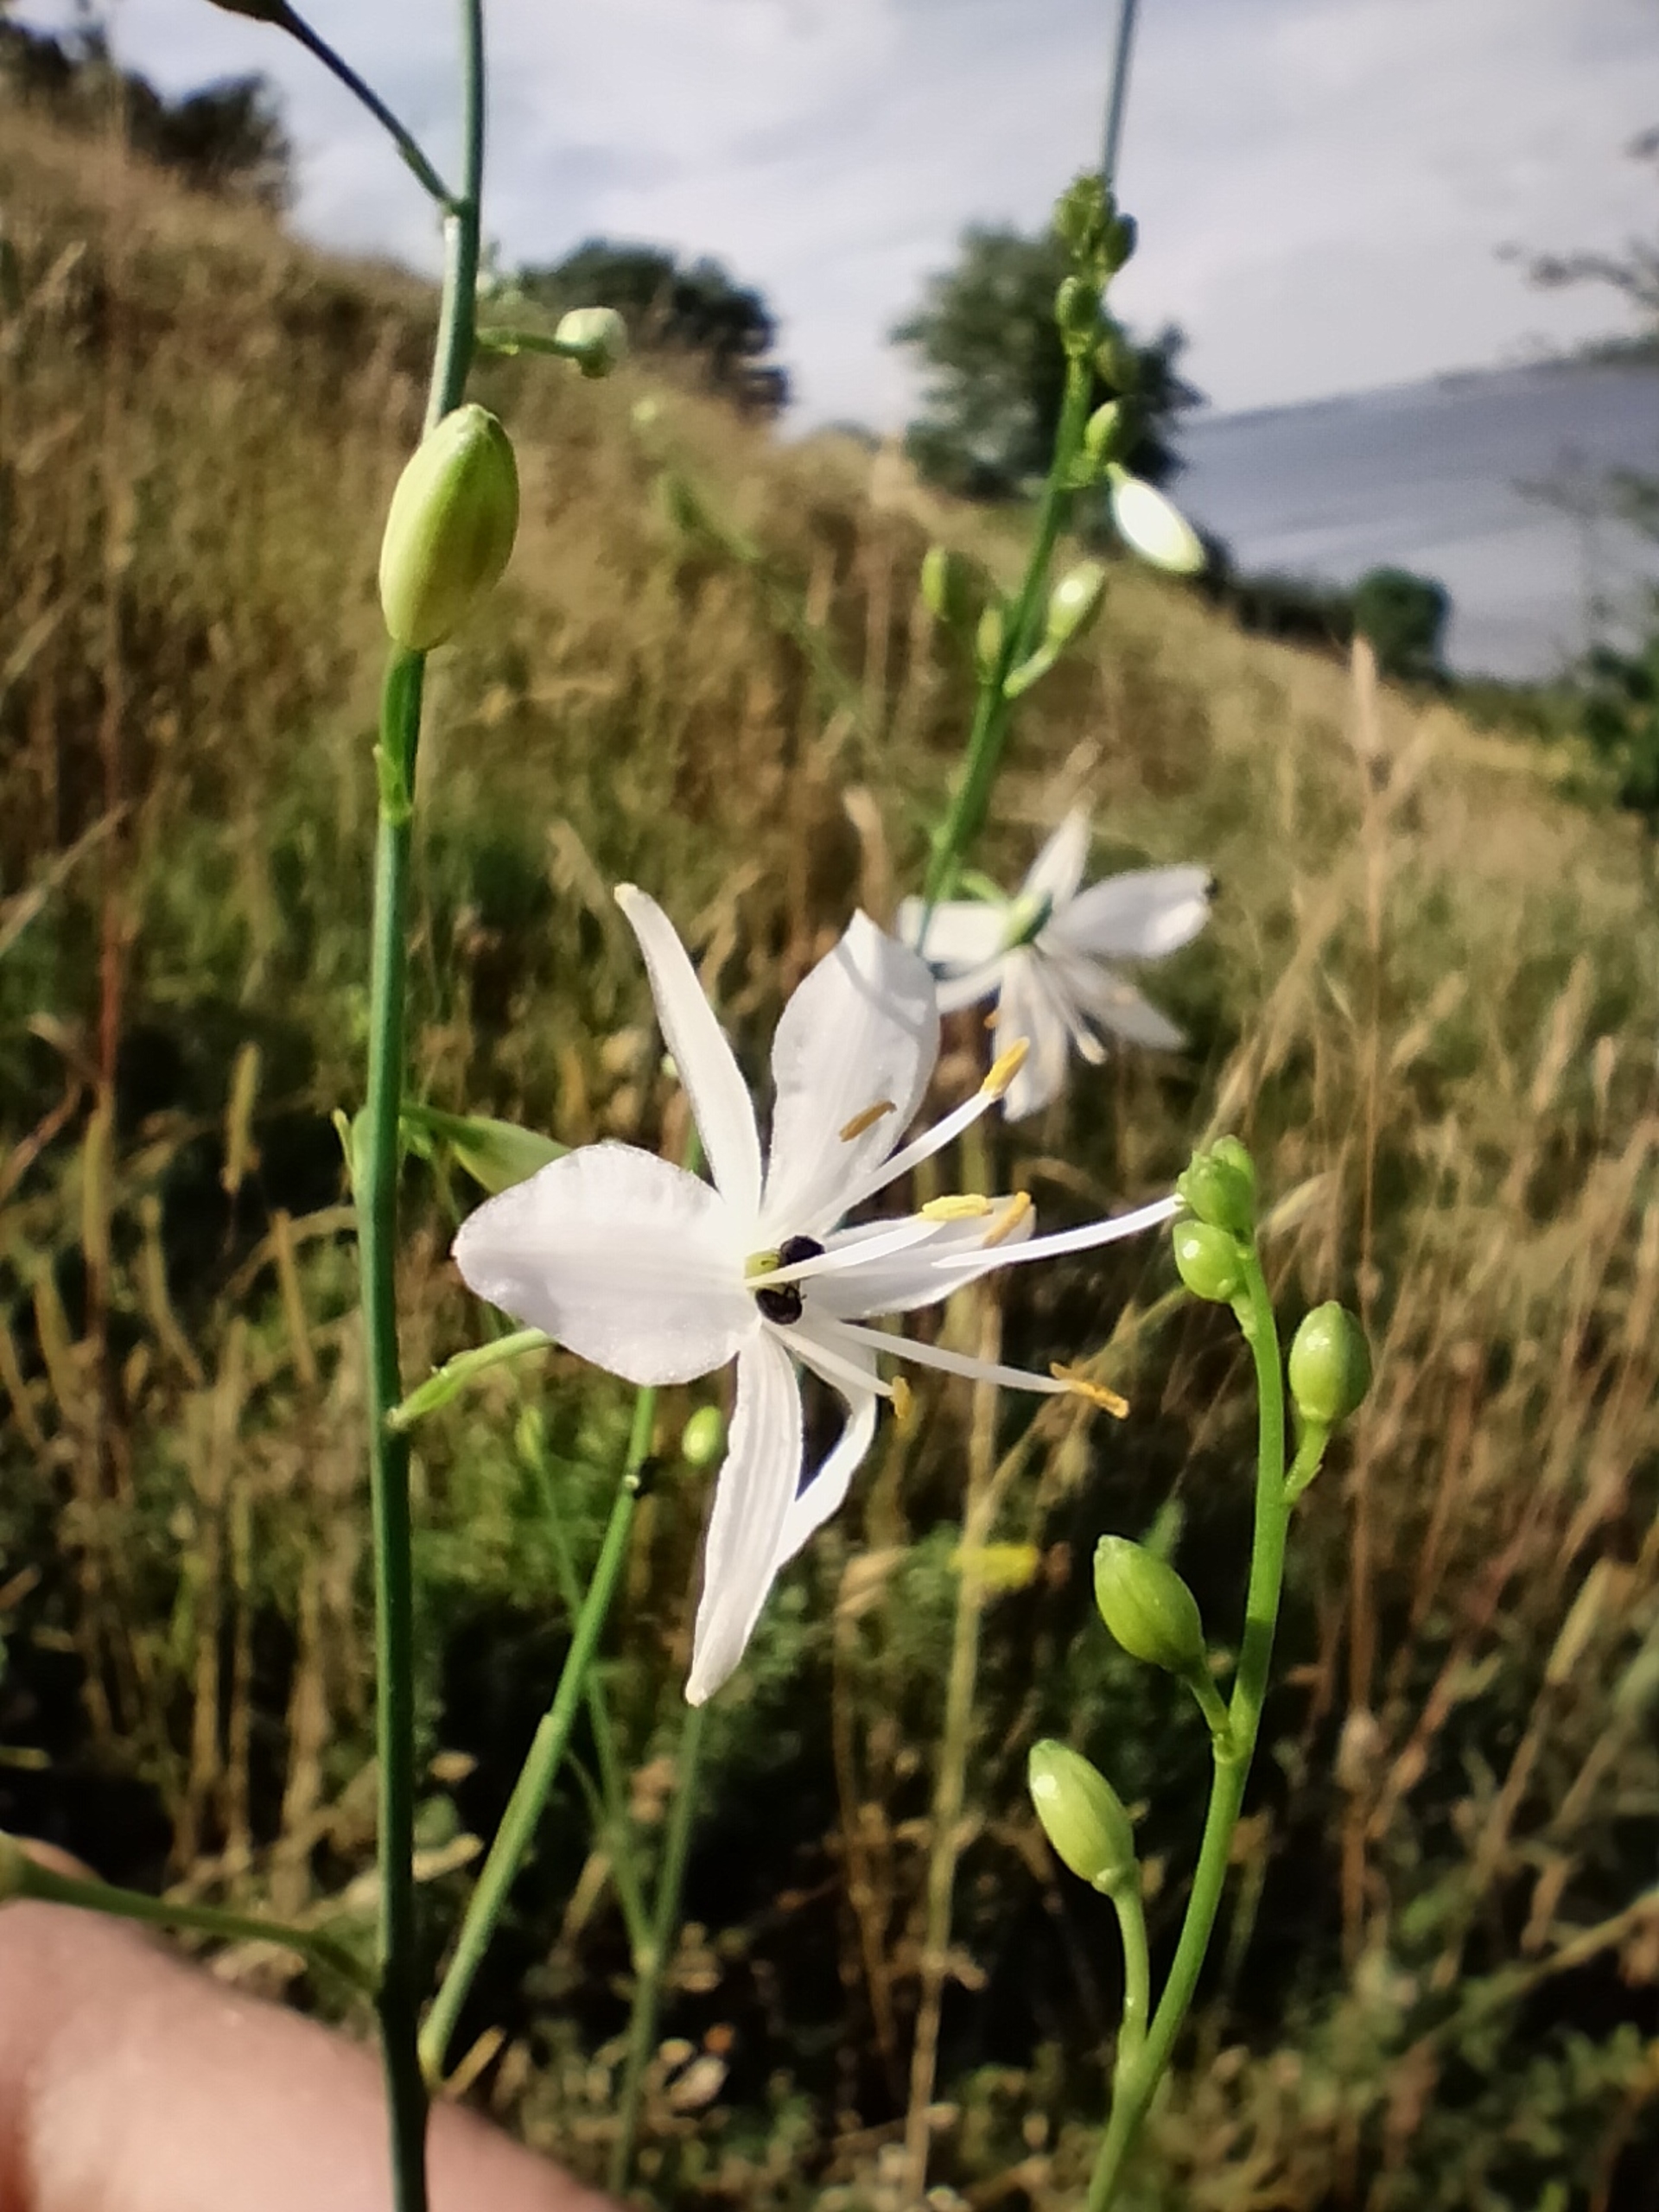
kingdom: Plantae
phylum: Tracheophyta
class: Liliopsida
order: Asparagales
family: Asparagaceae
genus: Anthericum
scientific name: Anthericum ramosum
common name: Grenet edderkopurt
